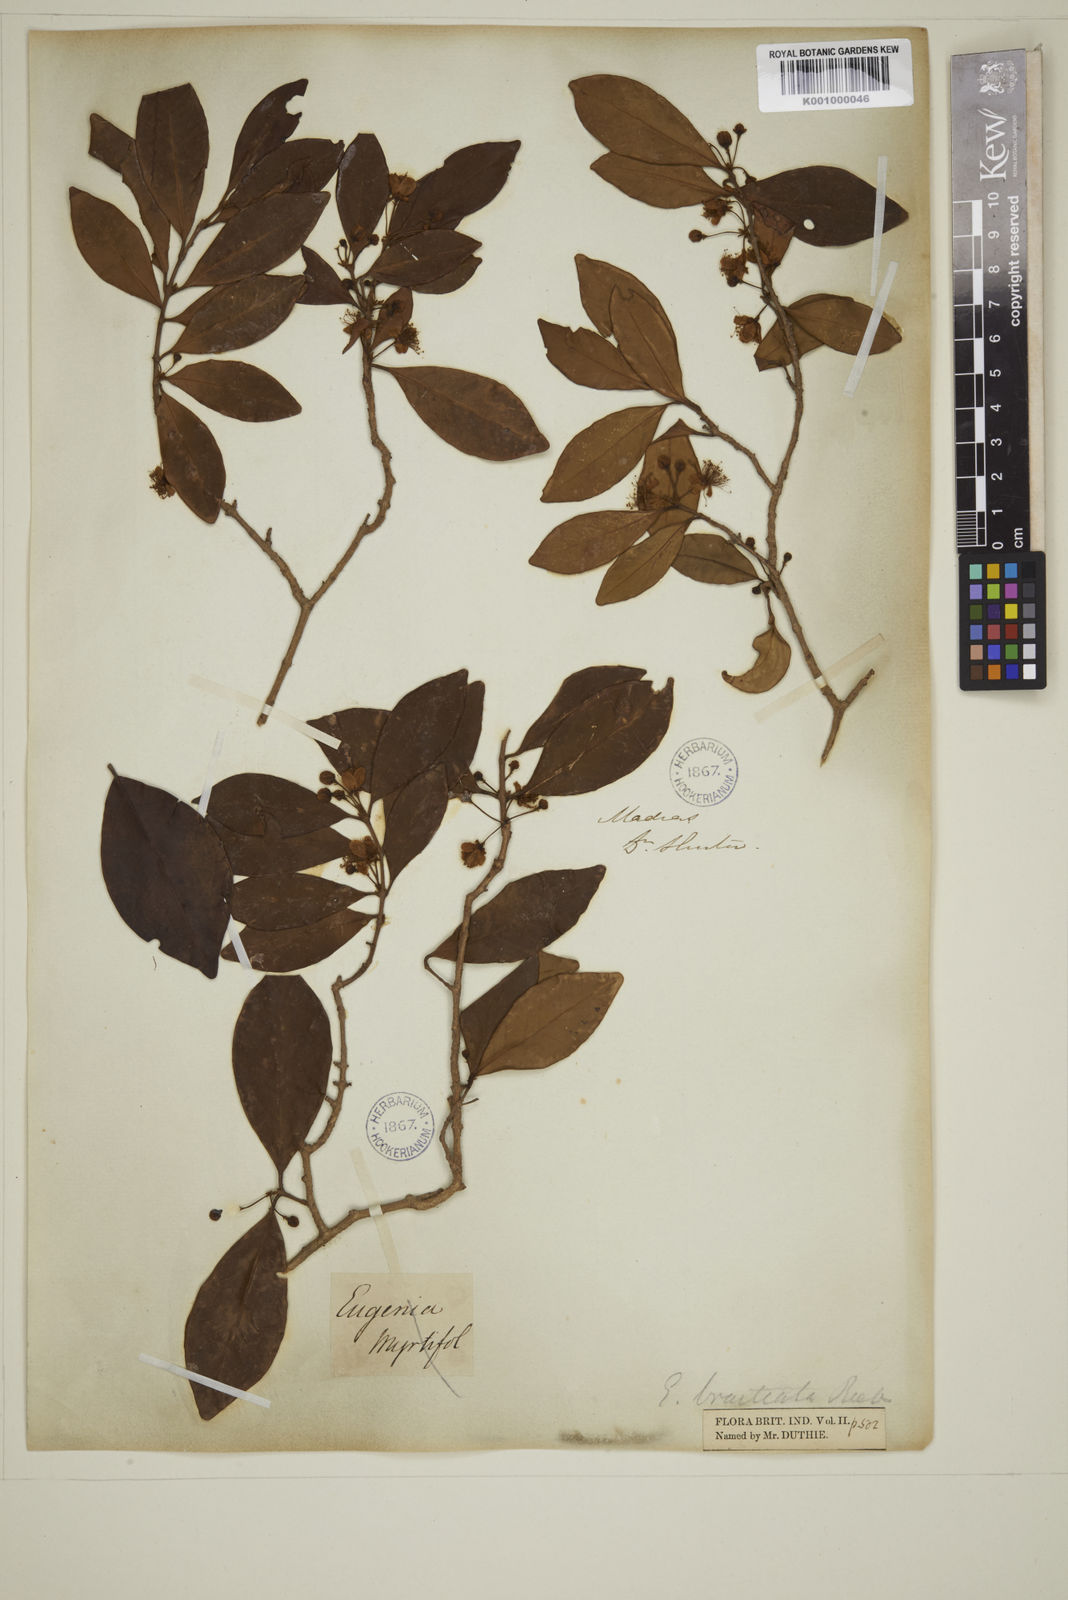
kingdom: Plantae
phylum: Tracheophyta
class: Magnoliopsida
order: Myrtales
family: Myrtaceae
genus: Myrcia
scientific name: Myrcia bracteata
